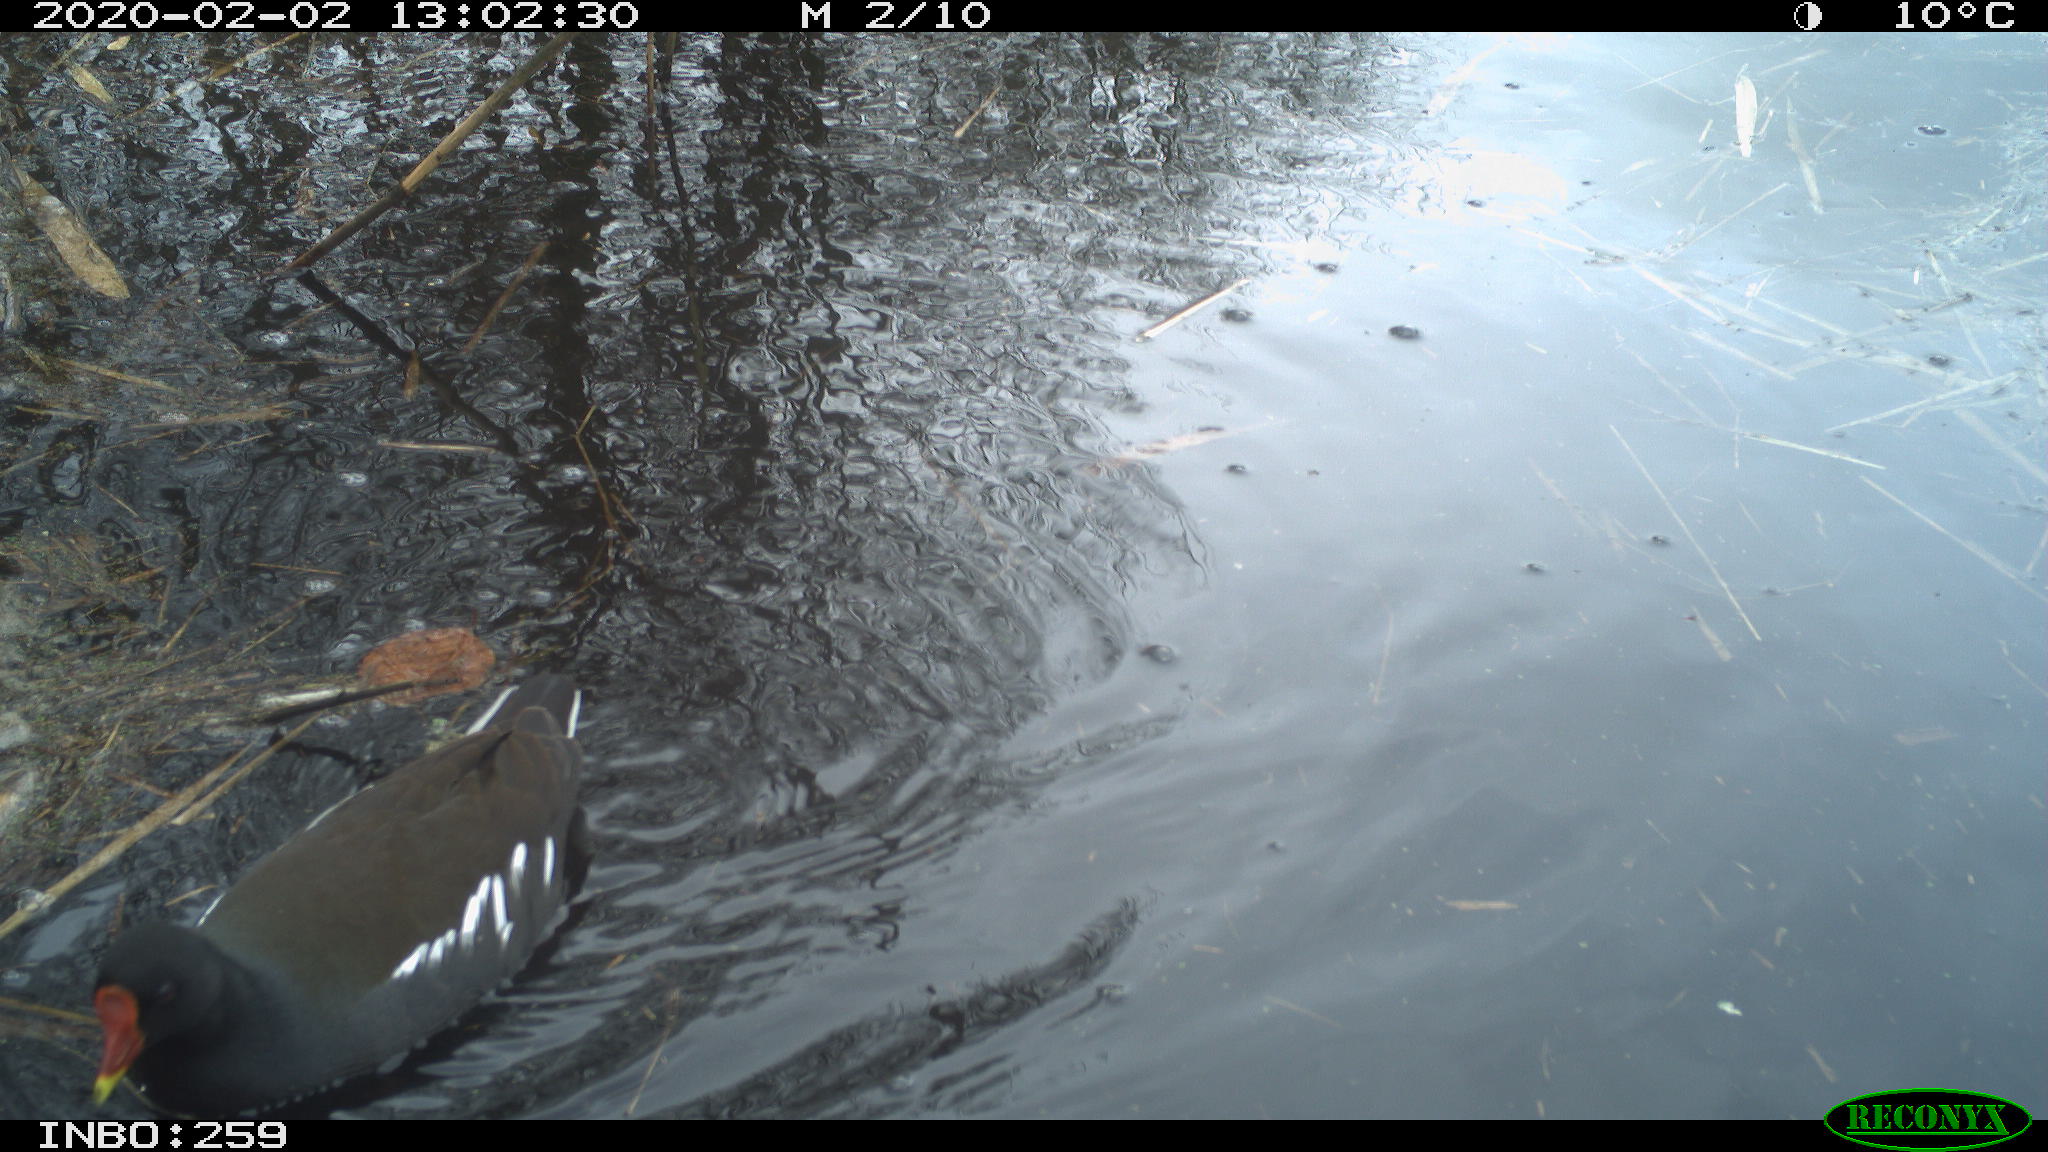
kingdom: Animalia
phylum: Chordata
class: Aves
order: Gruiformes
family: Rallidae
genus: Gallinula
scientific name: Gallinula chloropus
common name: Common moorhen
